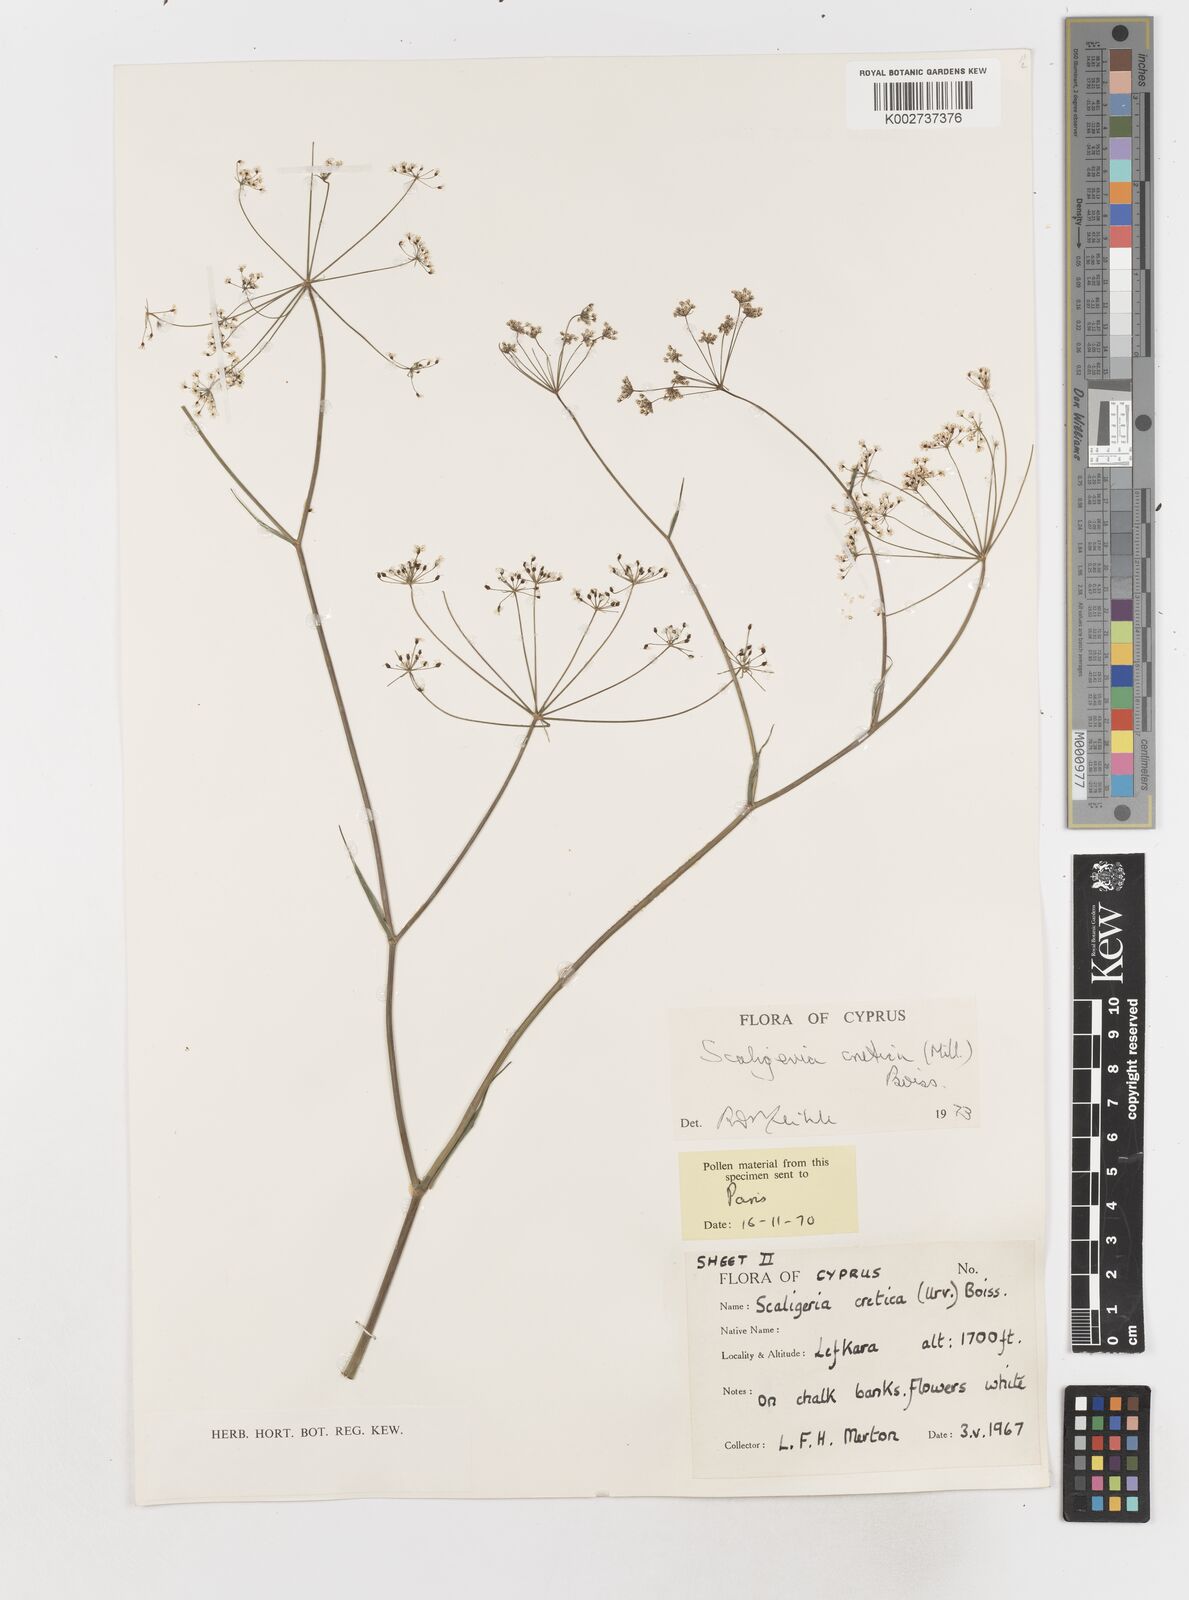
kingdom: Plantae
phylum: Tracheophyta
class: Magnoliopsida
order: Apiales
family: Apiaceae
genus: Scaligeria
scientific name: Scaligeria
